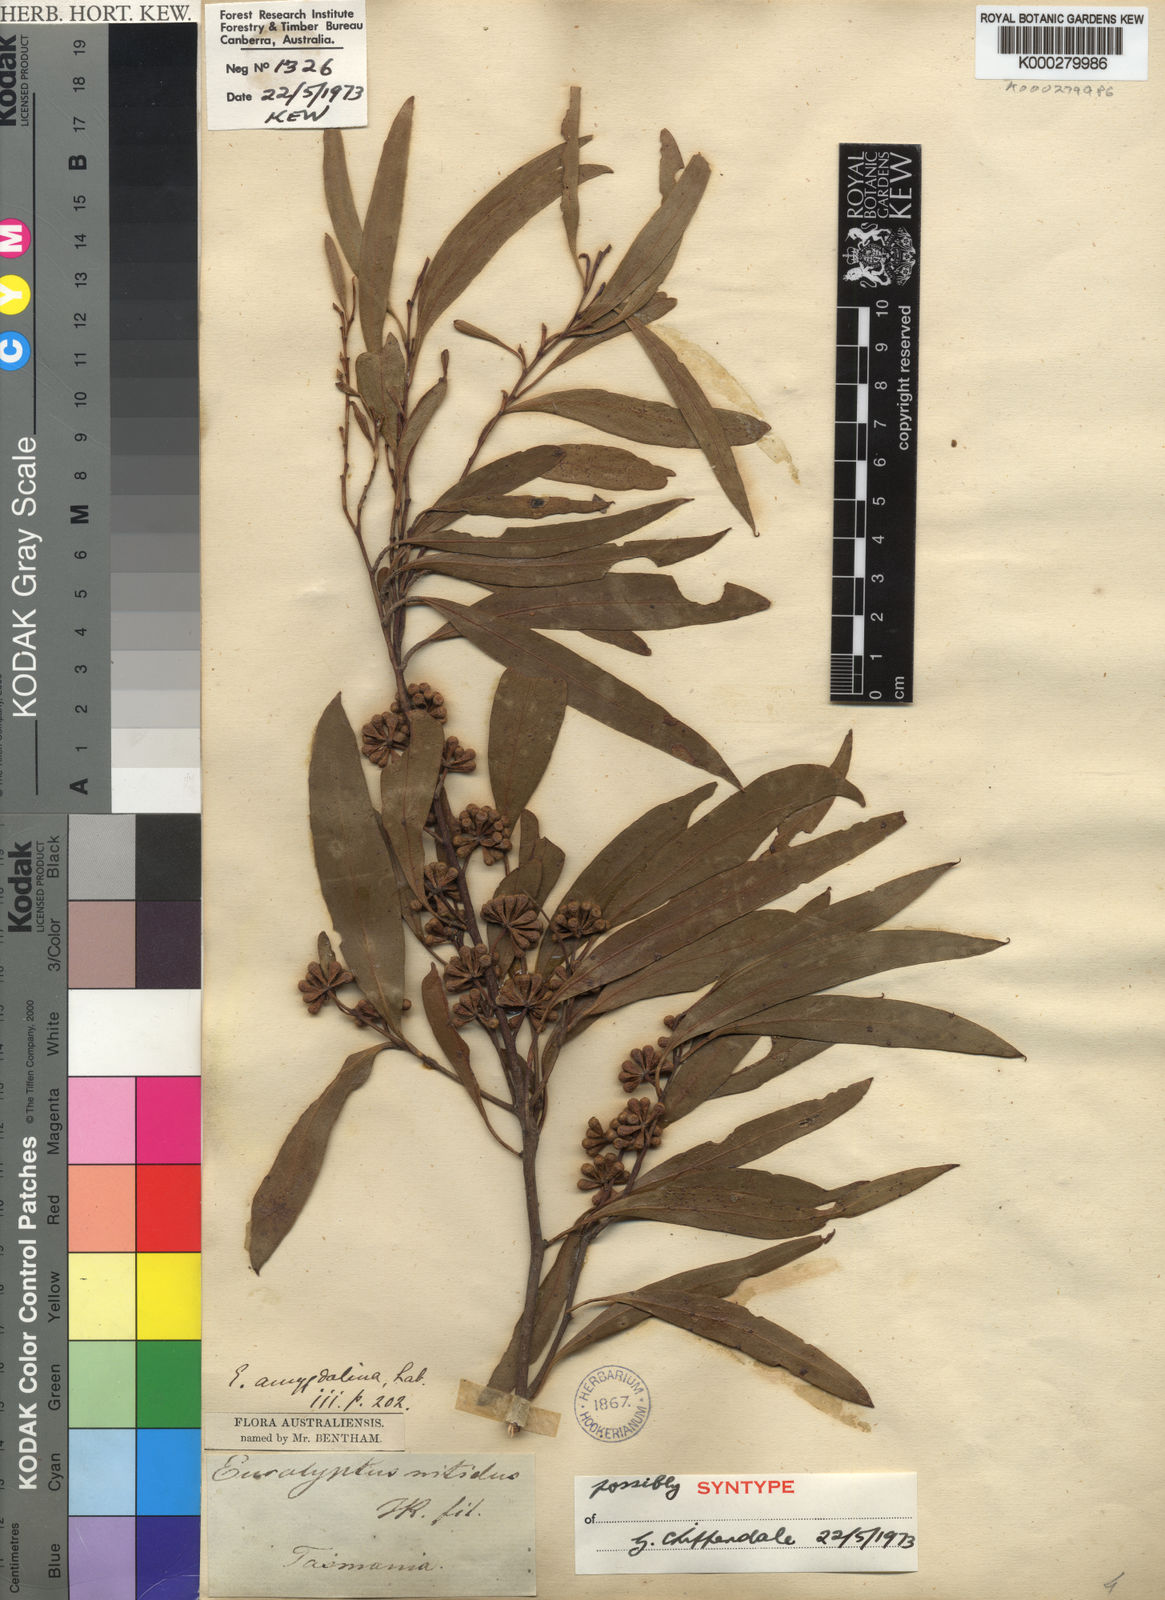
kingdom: Plantae
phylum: Tracheophyta
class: Magnoliopsida
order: Myrtales
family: Myrtaceae
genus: Eucalyptus
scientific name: Eucalyptus nitida
